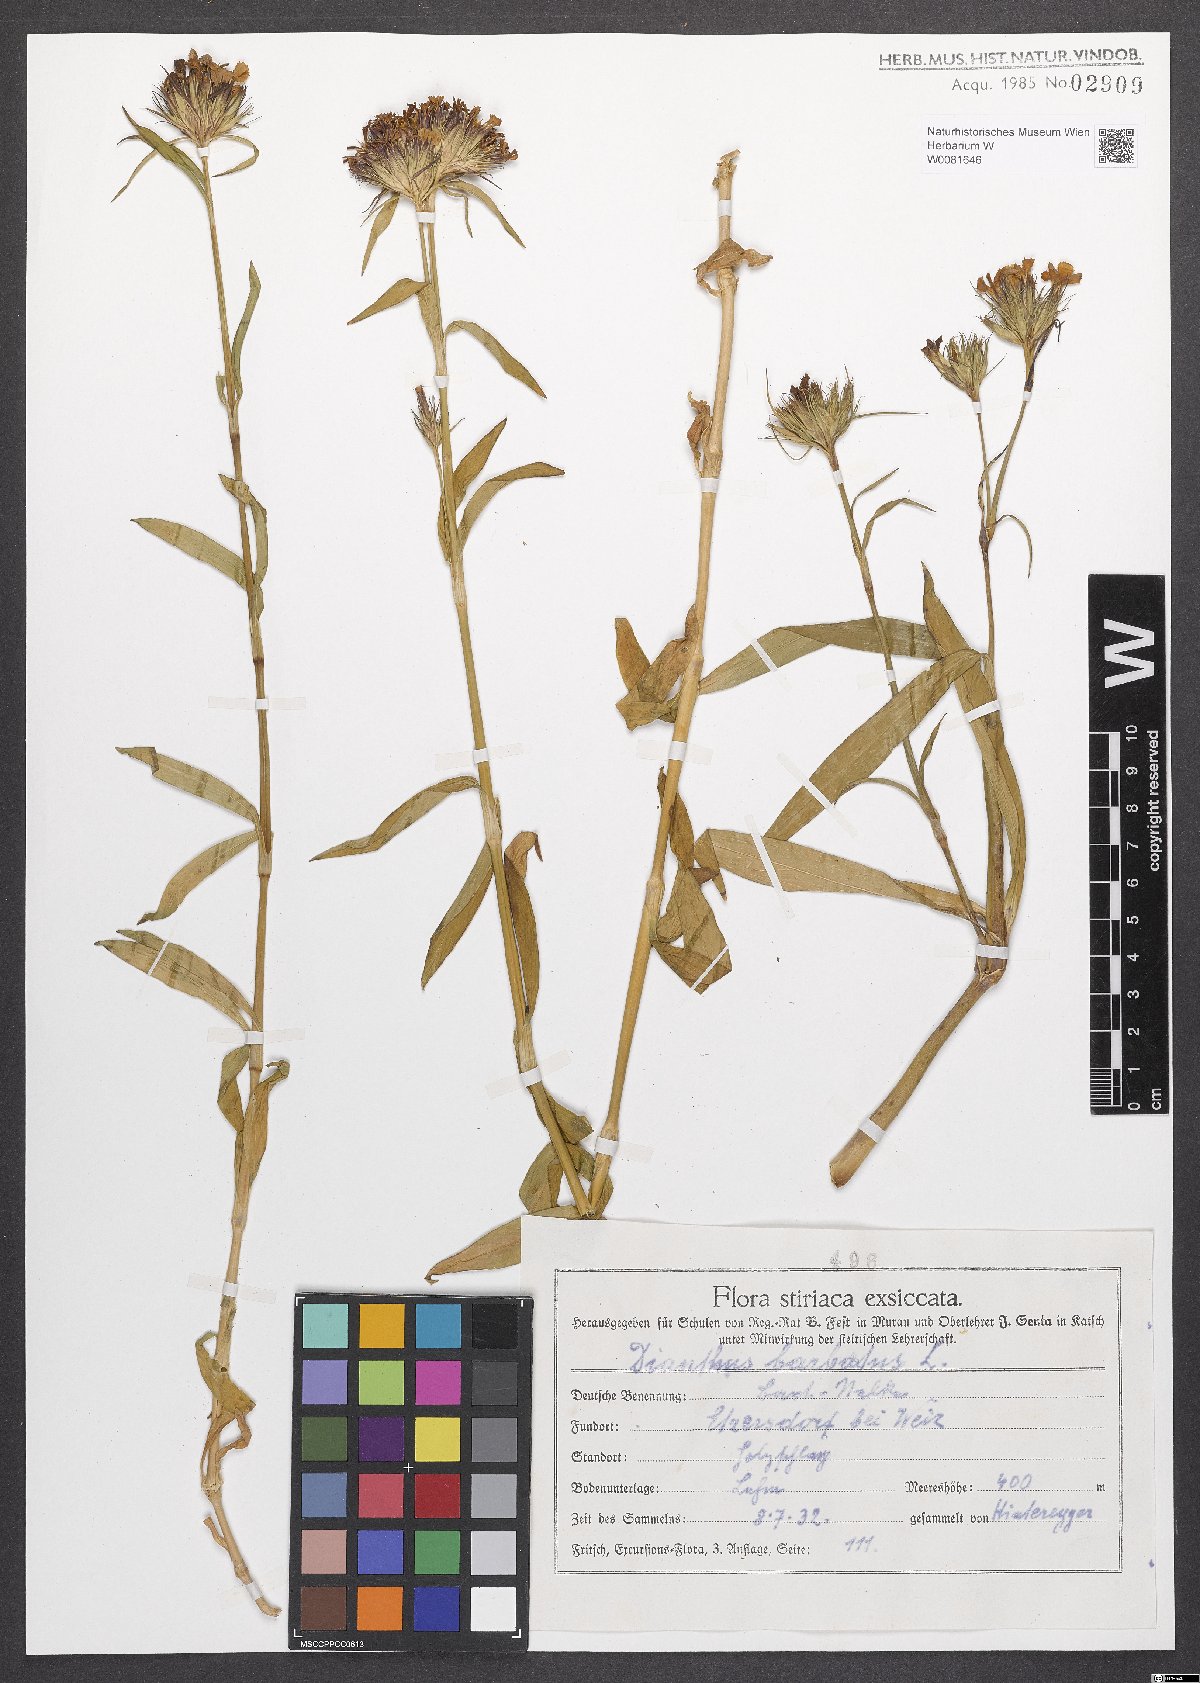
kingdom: Plantae
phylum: Tracheophyta
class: Magnoliopsida
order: Caryophyllales
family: Caryophyllaceae
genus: Dianthus
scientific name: Dianthus barbatus
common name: Sweet-william
